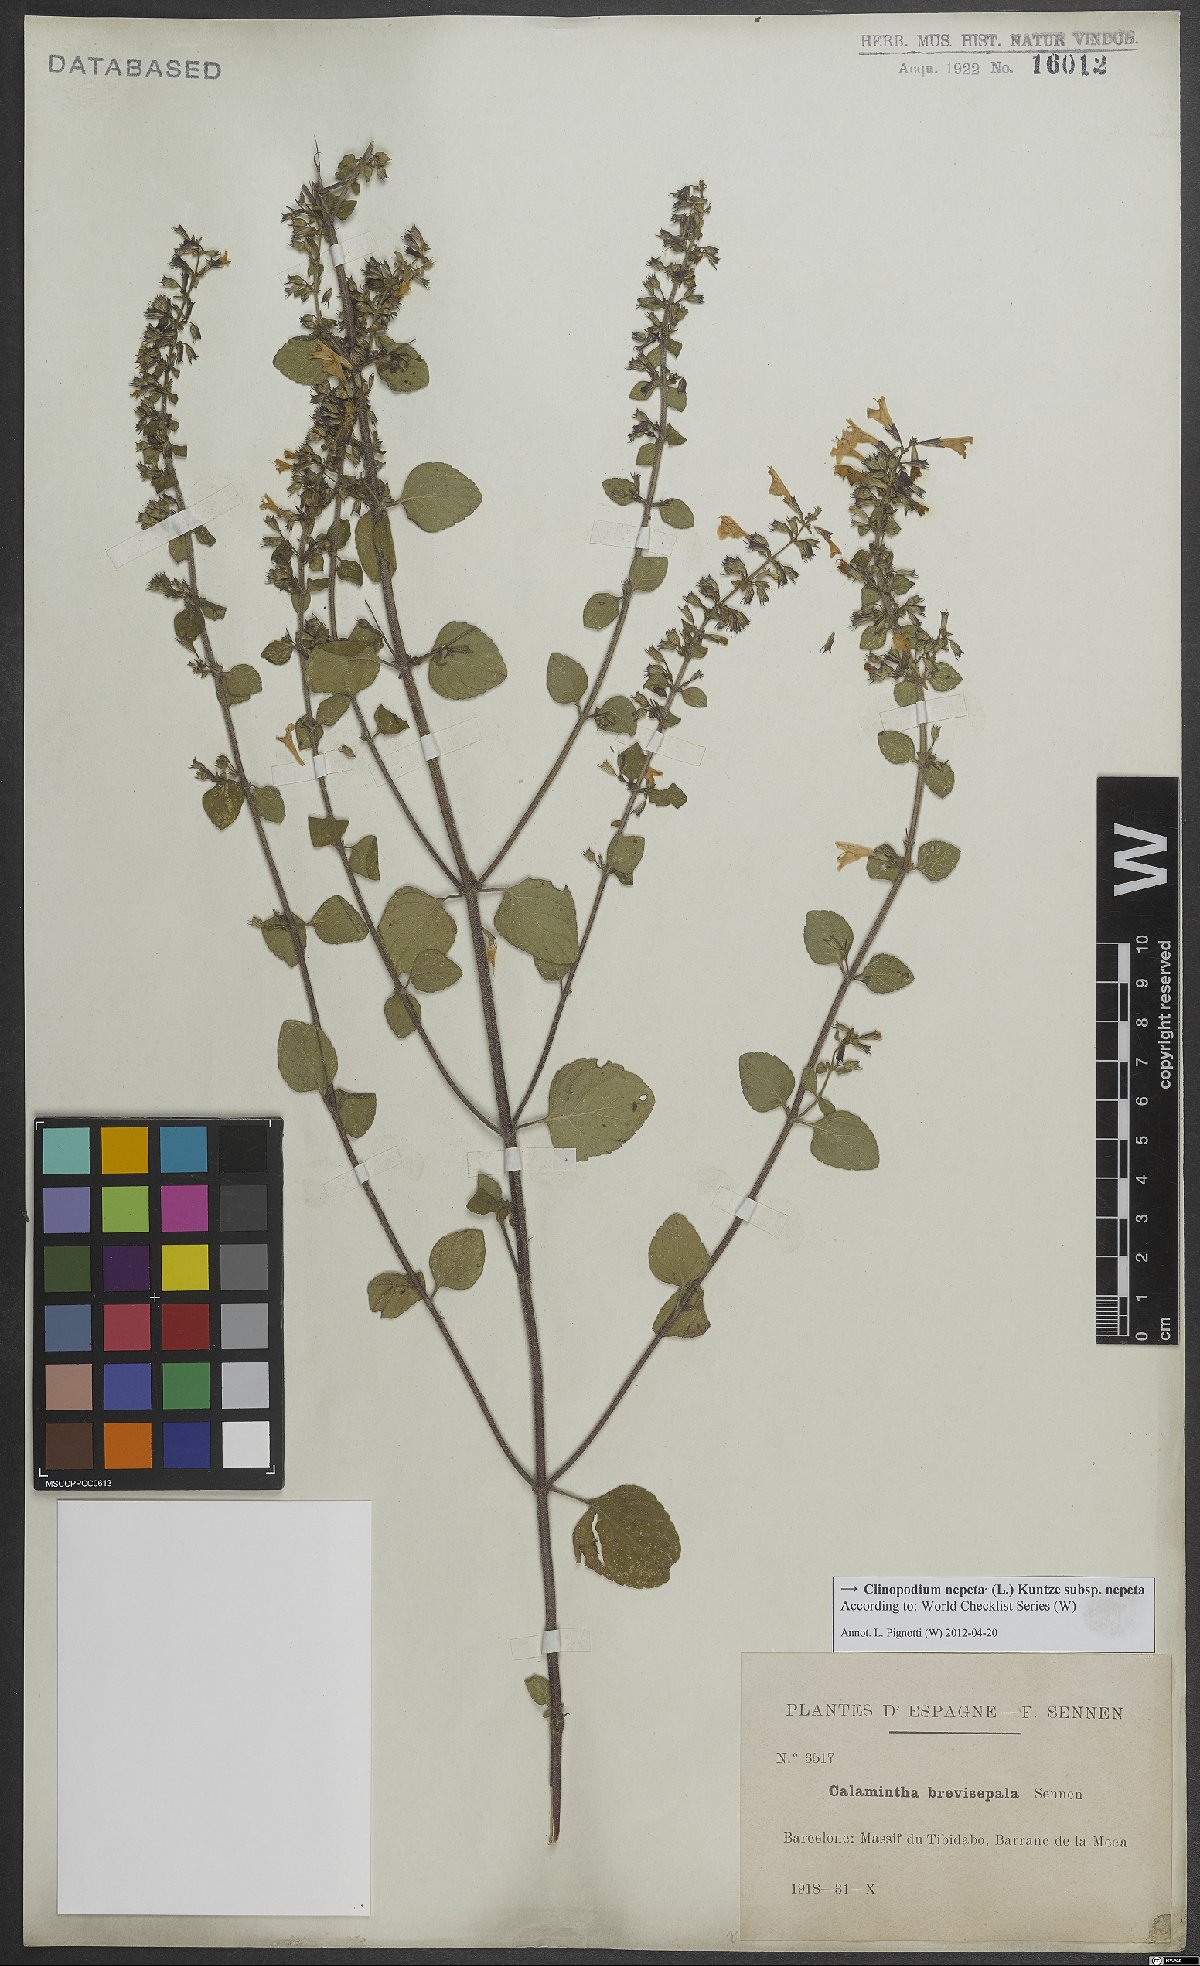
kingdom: Plantae
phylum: Tracheophyta
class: Magnoliopsida
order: Lamiales
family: Lamiaceae
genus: Clinopodium
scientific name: Clinopodium nepeta
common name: Lesser calamint
